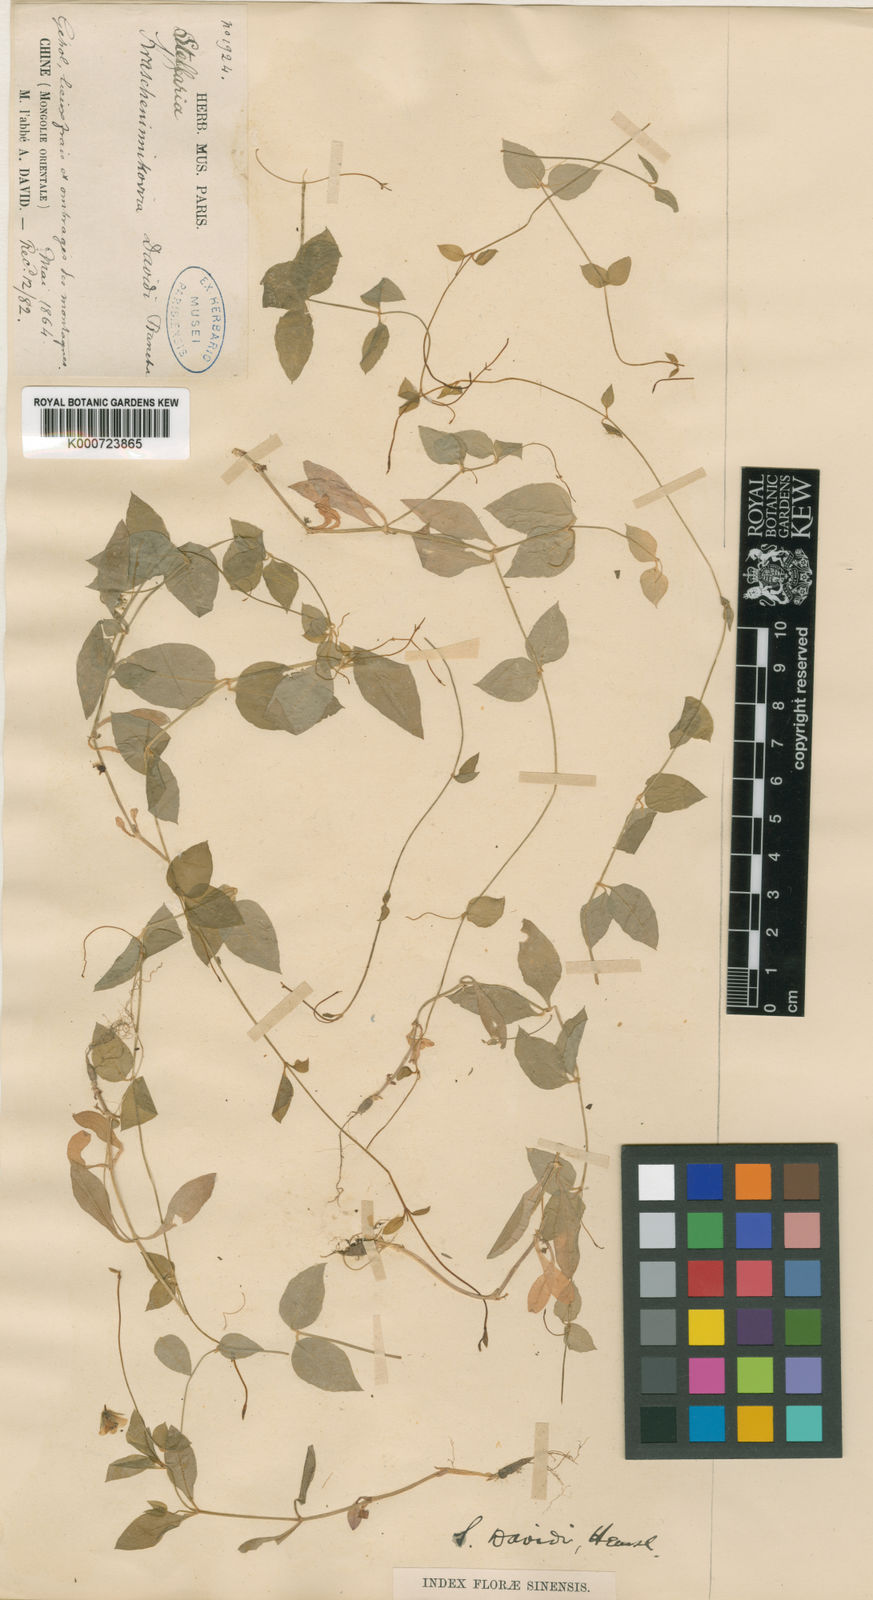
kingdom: Plantae
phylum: Tracheophyta
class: Magnoliopsida
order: Caryophyllales
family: Caryophyllaceae
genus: Pseudostellaria
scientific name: Pseudostellaria davidii
